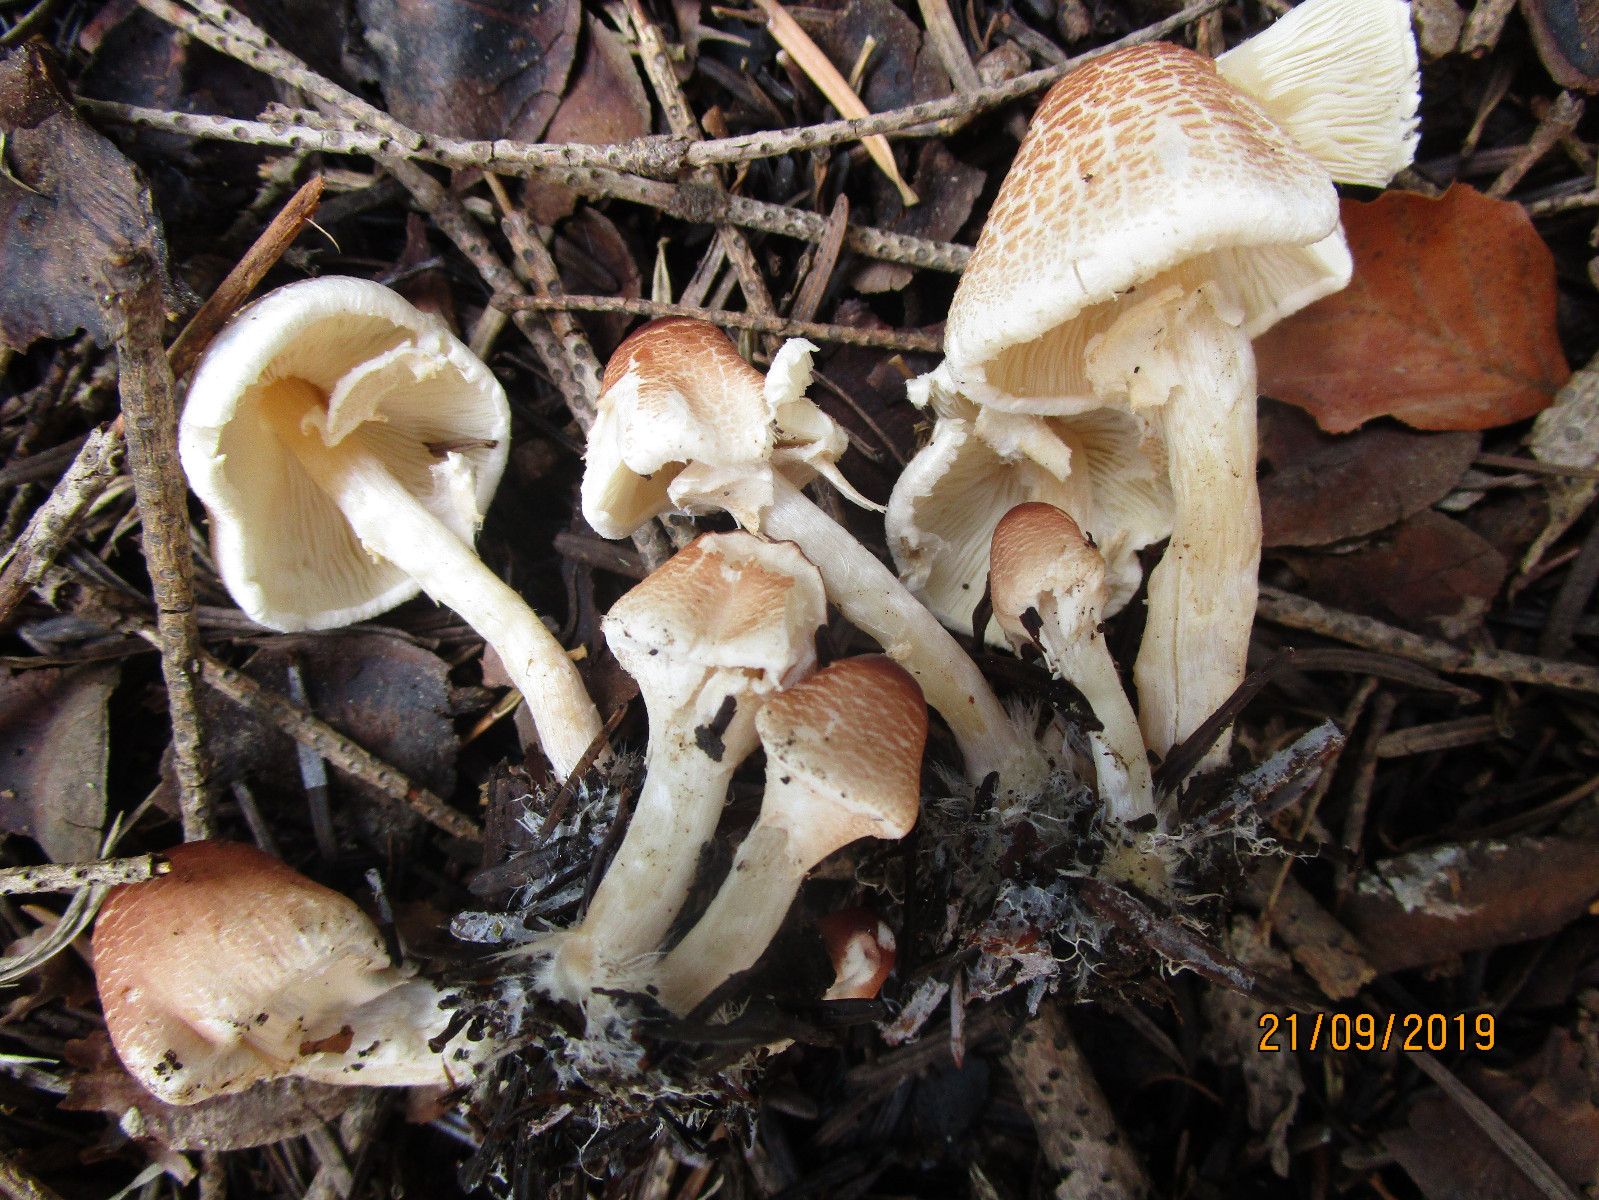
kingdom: Fungi
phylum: Basidiomycota
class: Agaricomycetes
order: Agaricales
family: Agaricaceae
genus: Lepiota
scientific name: Lepiota cristata
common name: stinkende parasolhat
